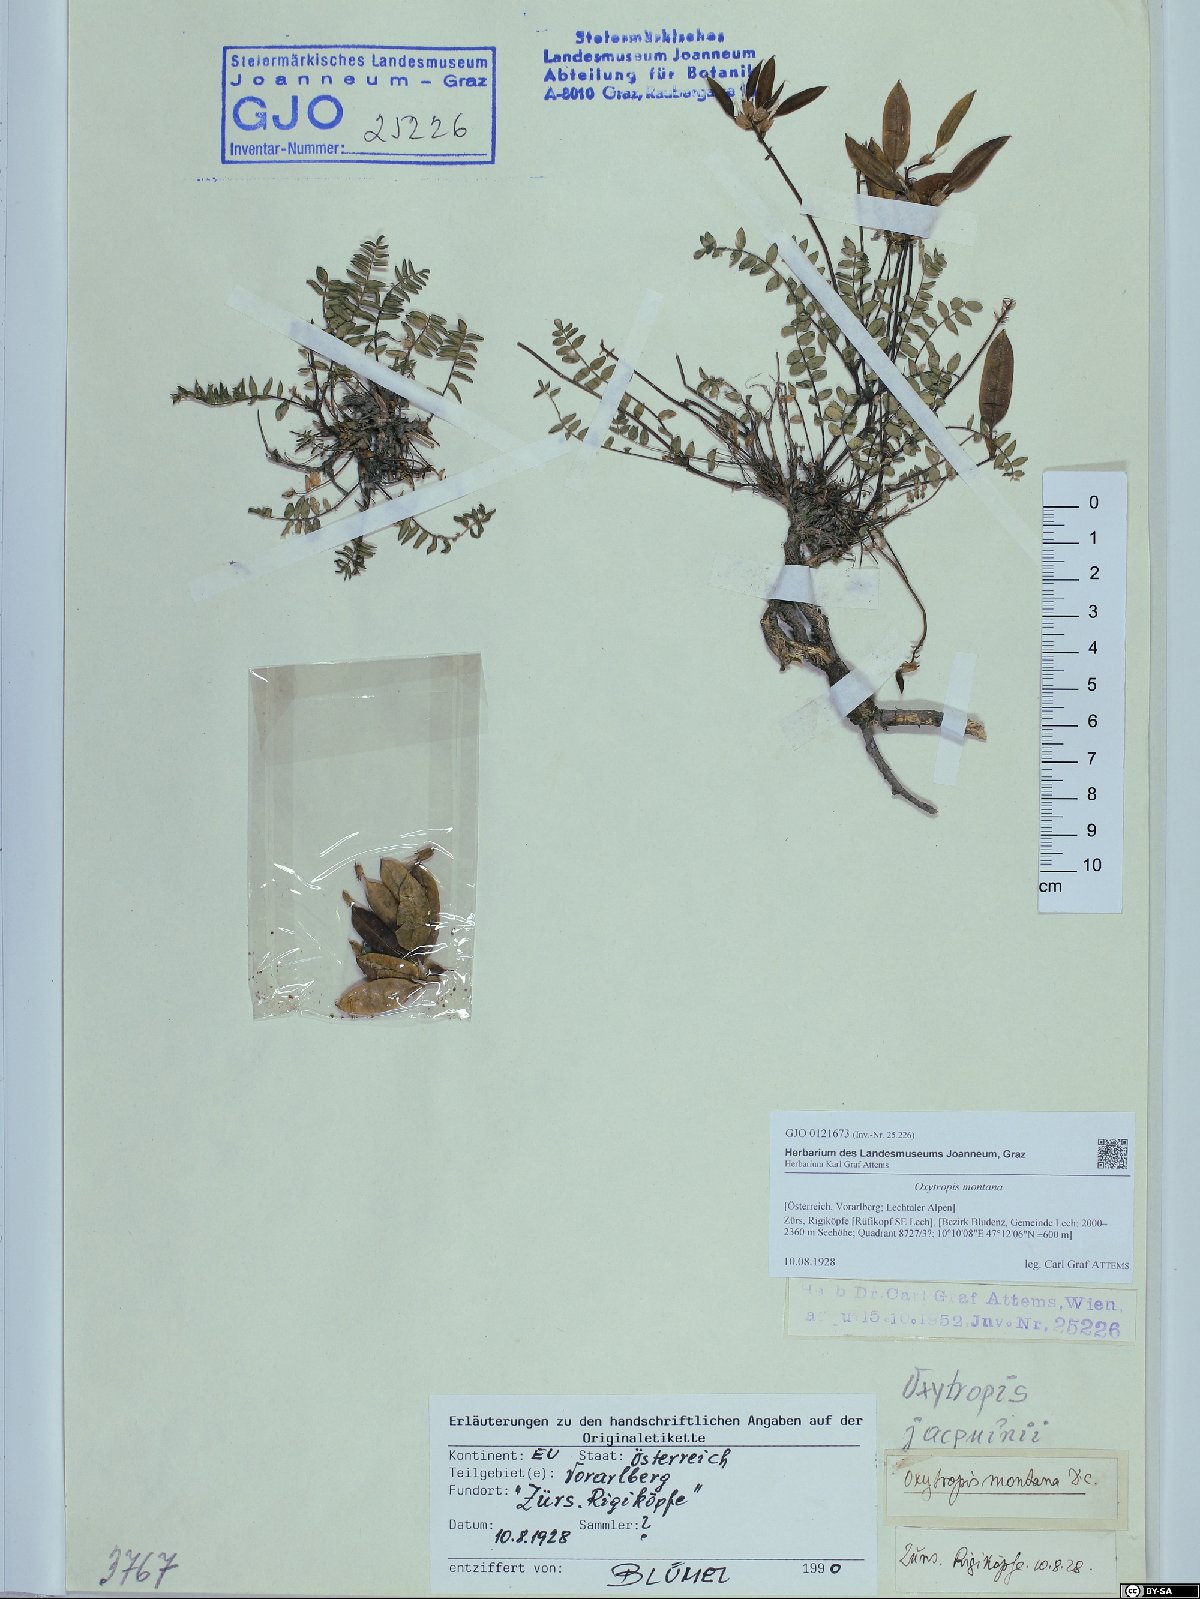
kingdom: Plantae
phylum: Tracheophyta
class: Magnoliopsida
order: Fabales
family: Fabaceae
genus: Oxytropis
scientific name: Oxytropis montana
